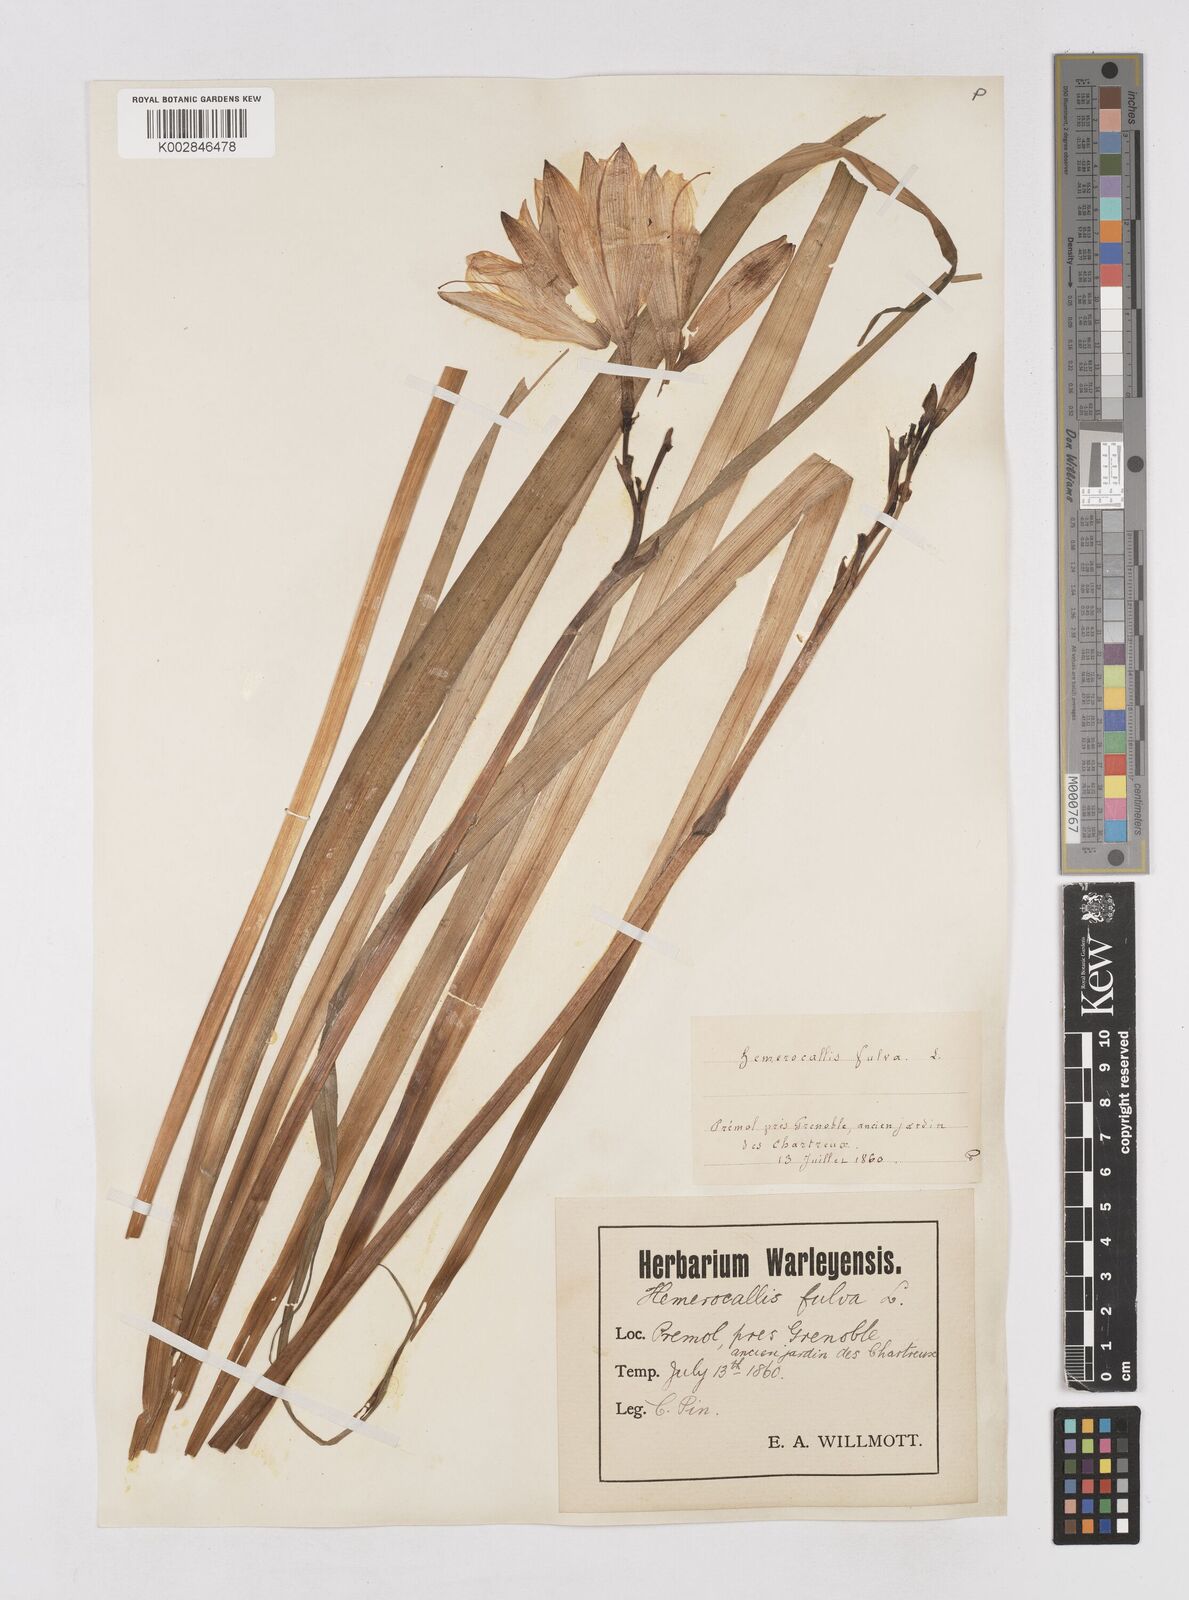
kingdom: Plantae
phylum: Tracheophyta
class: Liliopsida
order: Asparagales
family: Asphodelaceae
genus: Hemerocallis
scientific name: Hemerocallis fulva
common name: Orange day-lily
